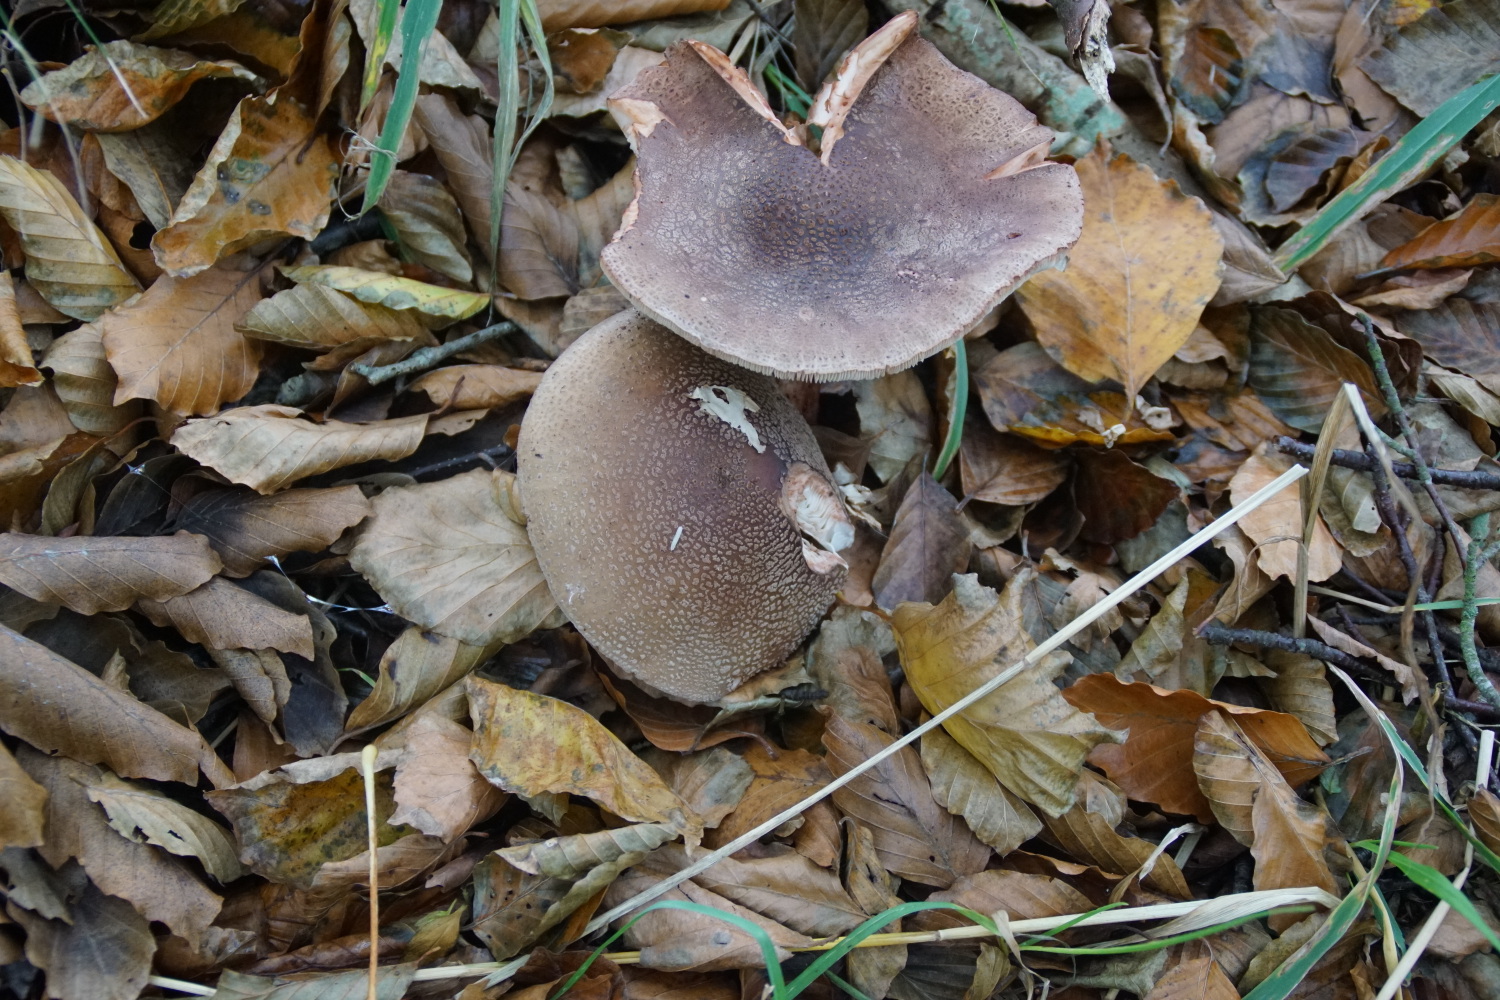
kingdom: Fungi
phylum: Basidiomycota
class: Agaricomycetes
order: Agaricales
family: Amanitaceae
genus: Amanita
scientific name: Amanita rubescens
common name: rødmende fluesvamp
